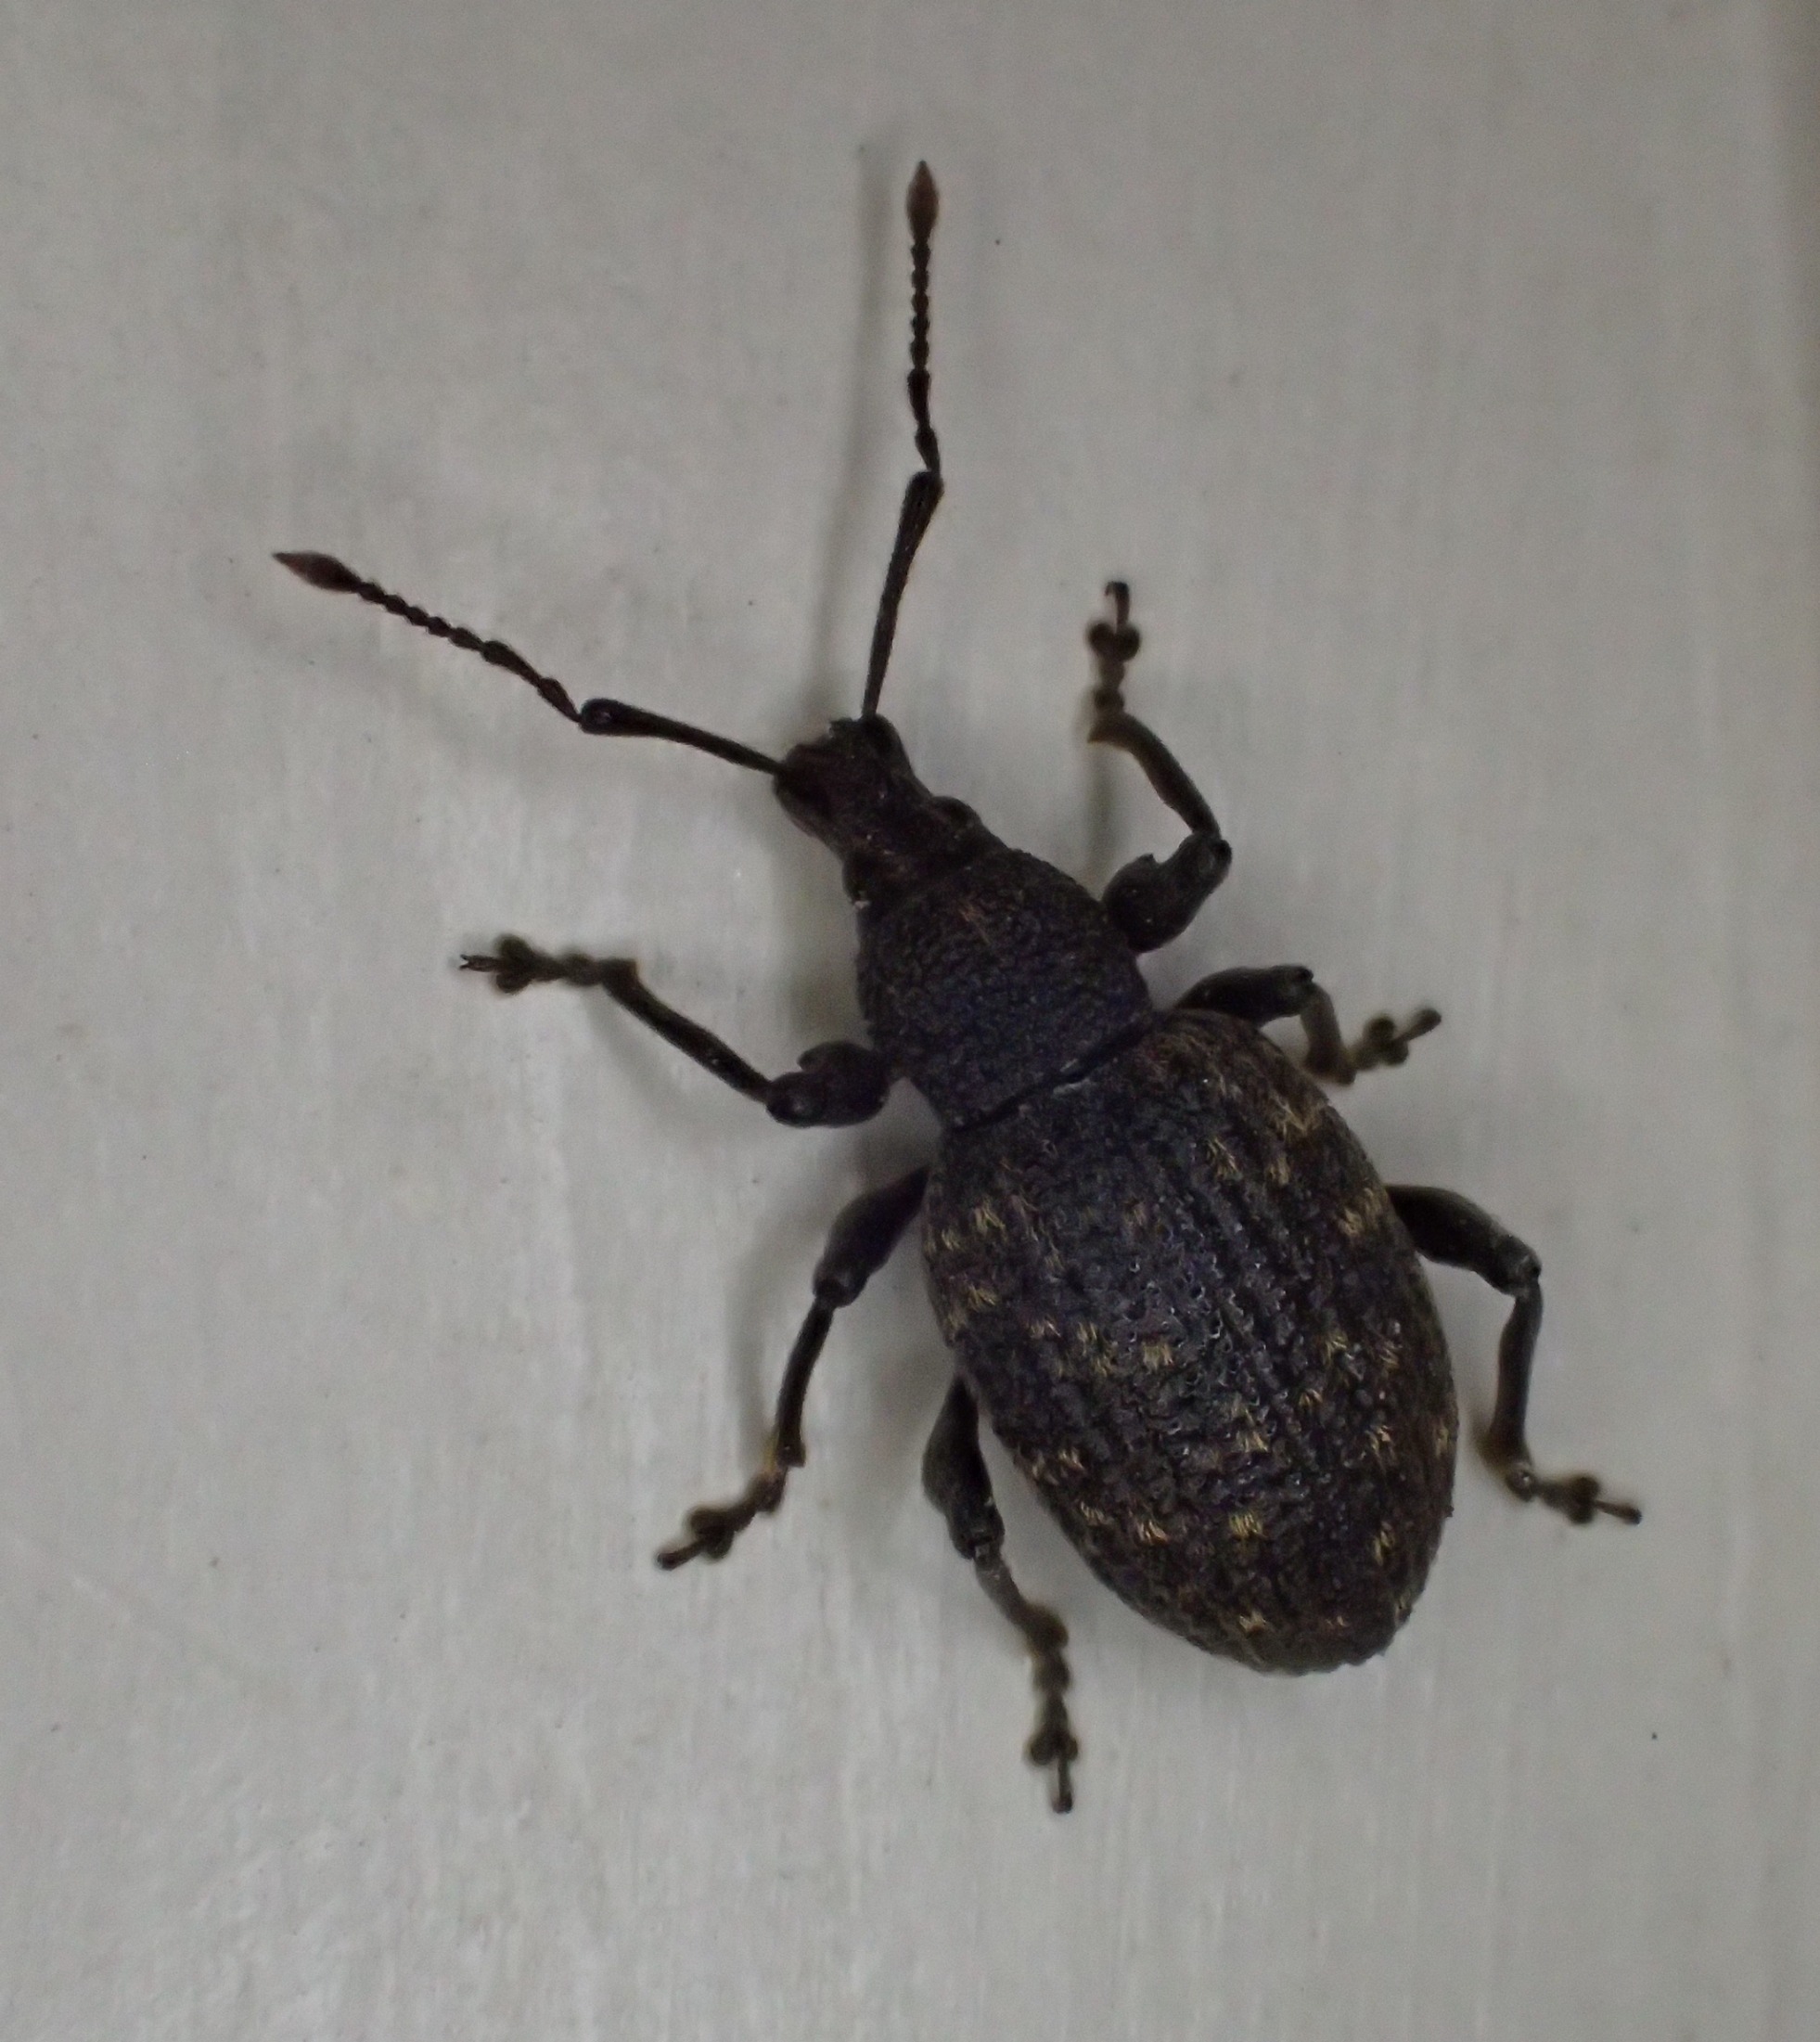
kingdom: Animalia
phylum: Arthropoda
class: Insecta
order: Coleoptera
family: Curculionidae
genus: Otiorhynchus
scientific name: Otiorhynchus sulcatus
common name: Væksthussnudebille
